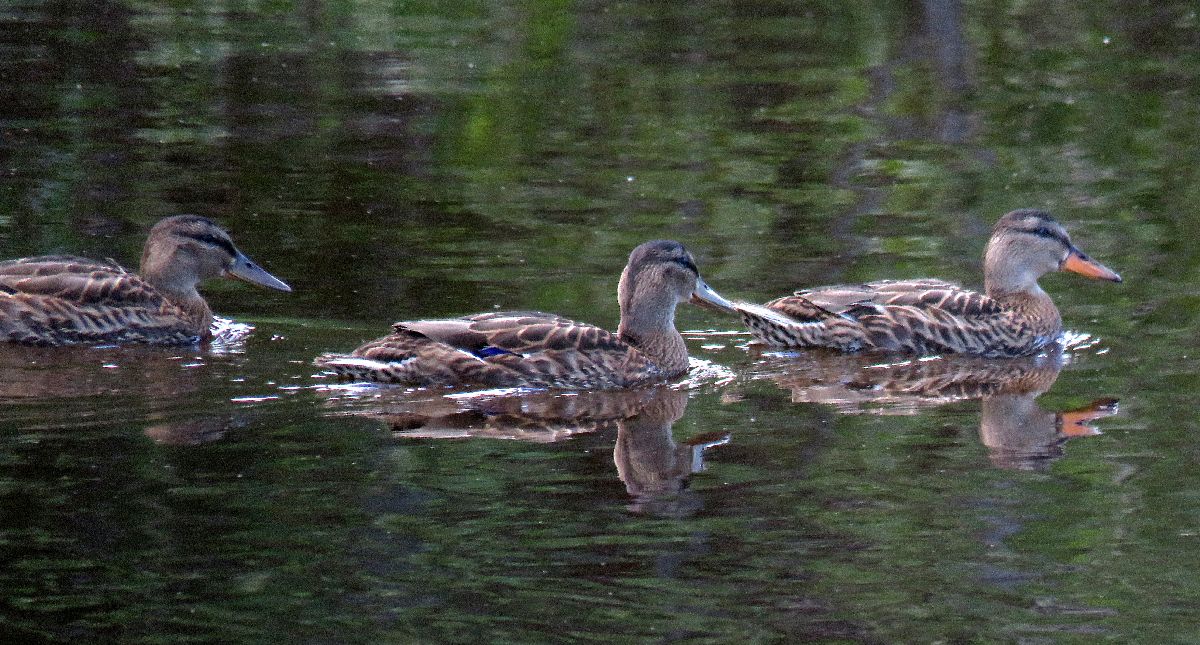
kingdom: Animalia
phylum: Chordata
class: Aves
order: Anseriformes
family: Anatidae
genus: Anas
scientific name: Anas platyrhynchos
